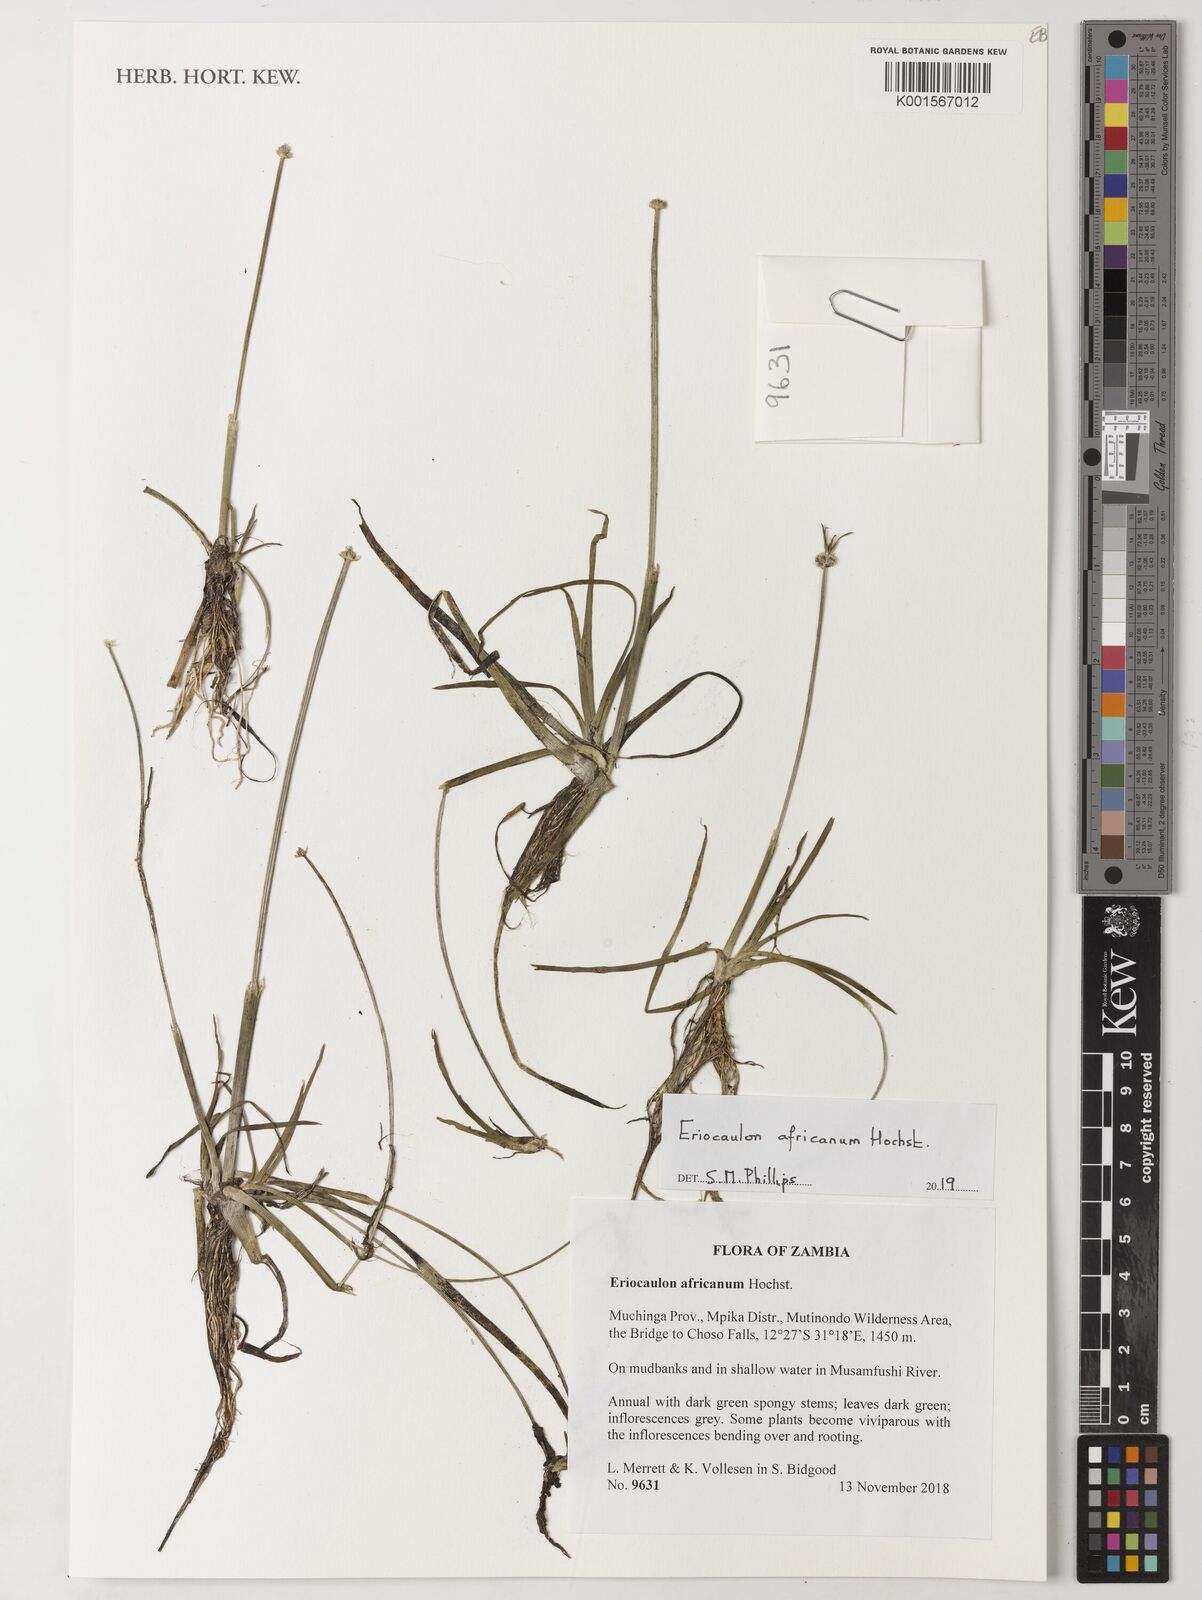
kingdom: Plantae
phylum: Tracheophyta
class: Liliopsida
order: Poales
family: Eriocaulaceae
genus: Eriocaulon
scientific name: Eriocaulon africanum
